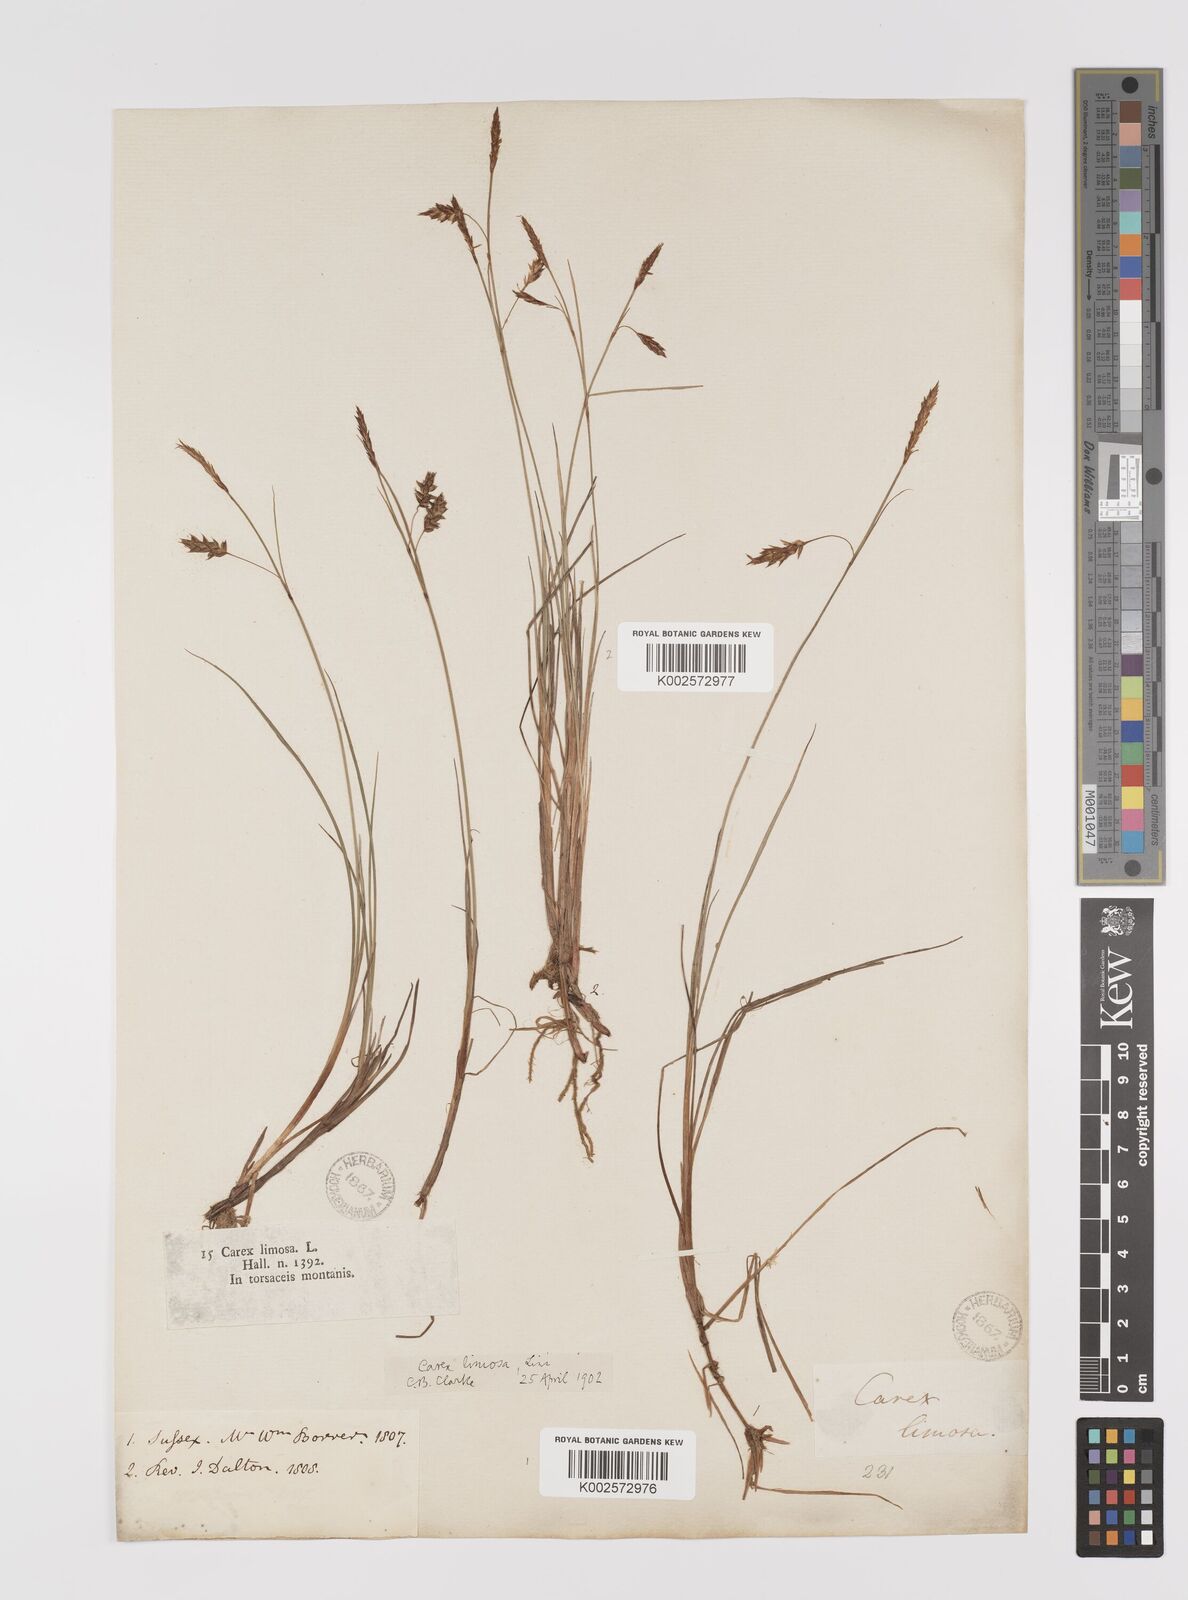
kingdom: Plantae
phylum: Tracheophyta
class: Liliopsida
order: Poales
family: Cyperaceae
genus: Carex
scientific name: Carex limosa
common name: Bog sedge
